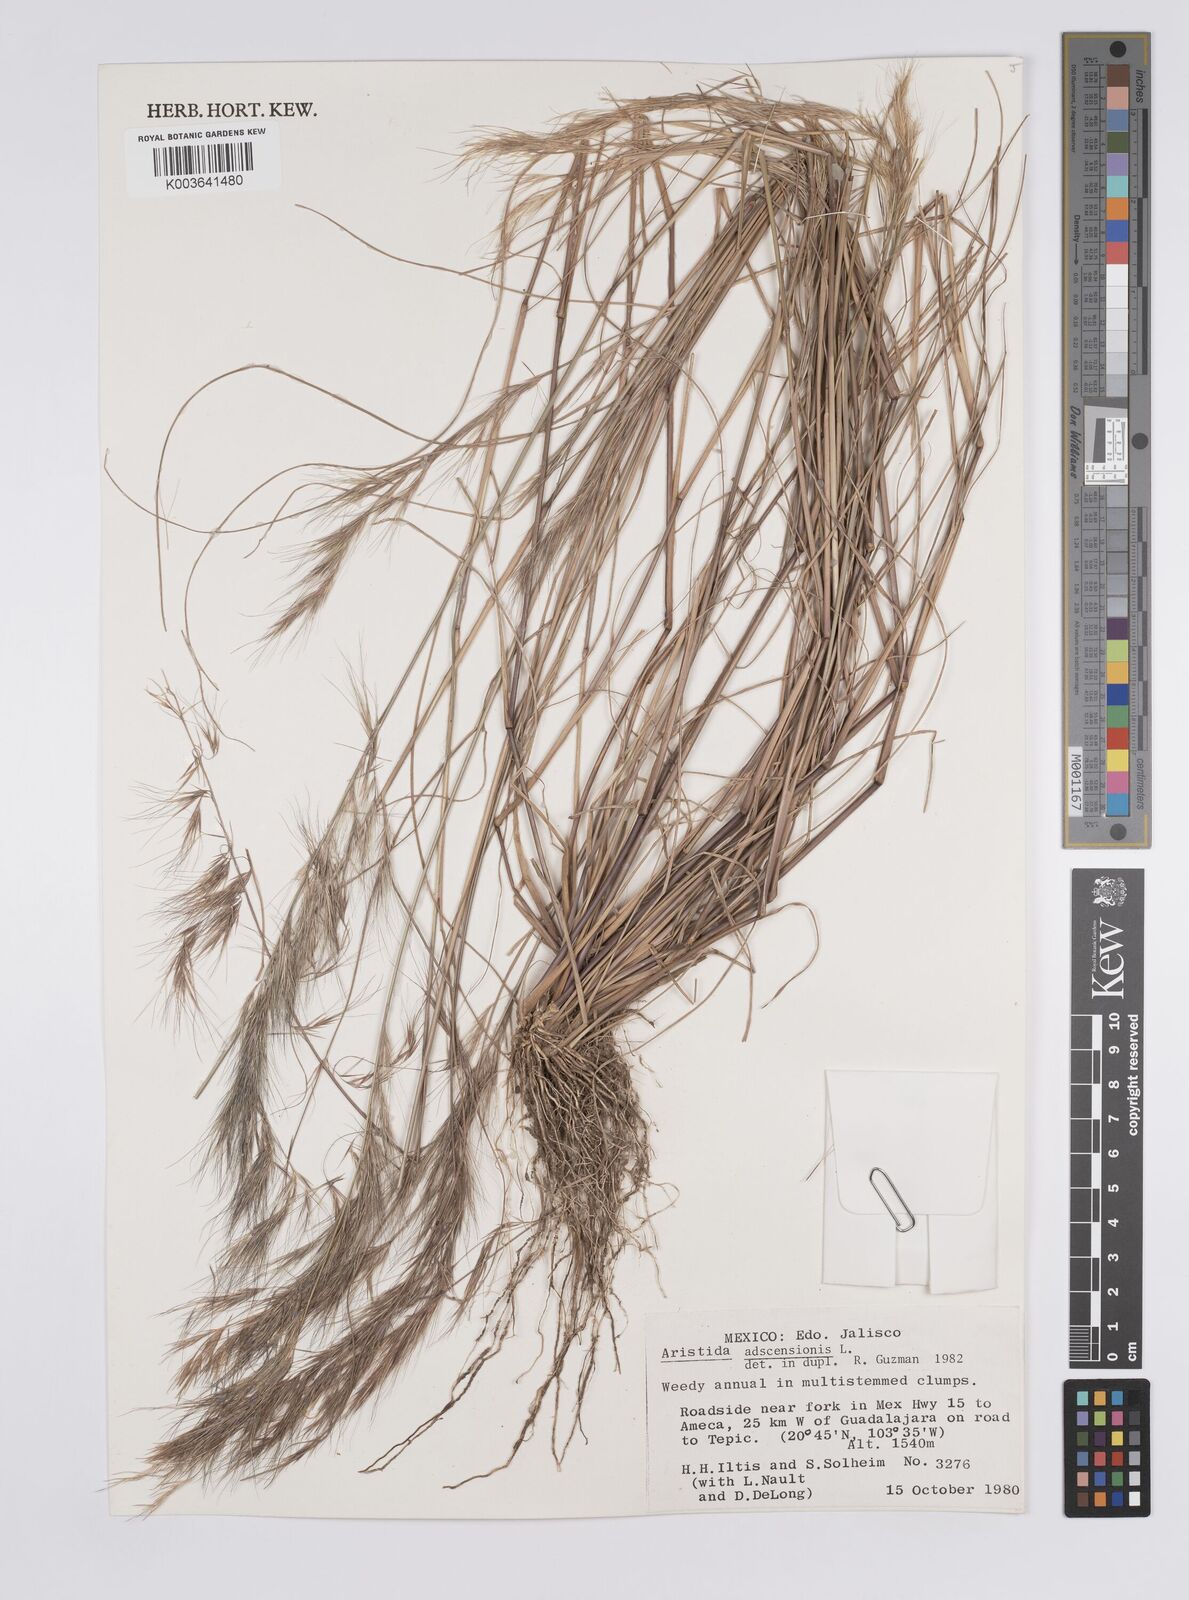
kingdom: Plantae
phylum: Tracheophyta
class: Liliopsida
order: Poales
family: Poaceae
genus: Aristida
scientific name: Aristida adscensionis
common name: Sixweeks threeawn
